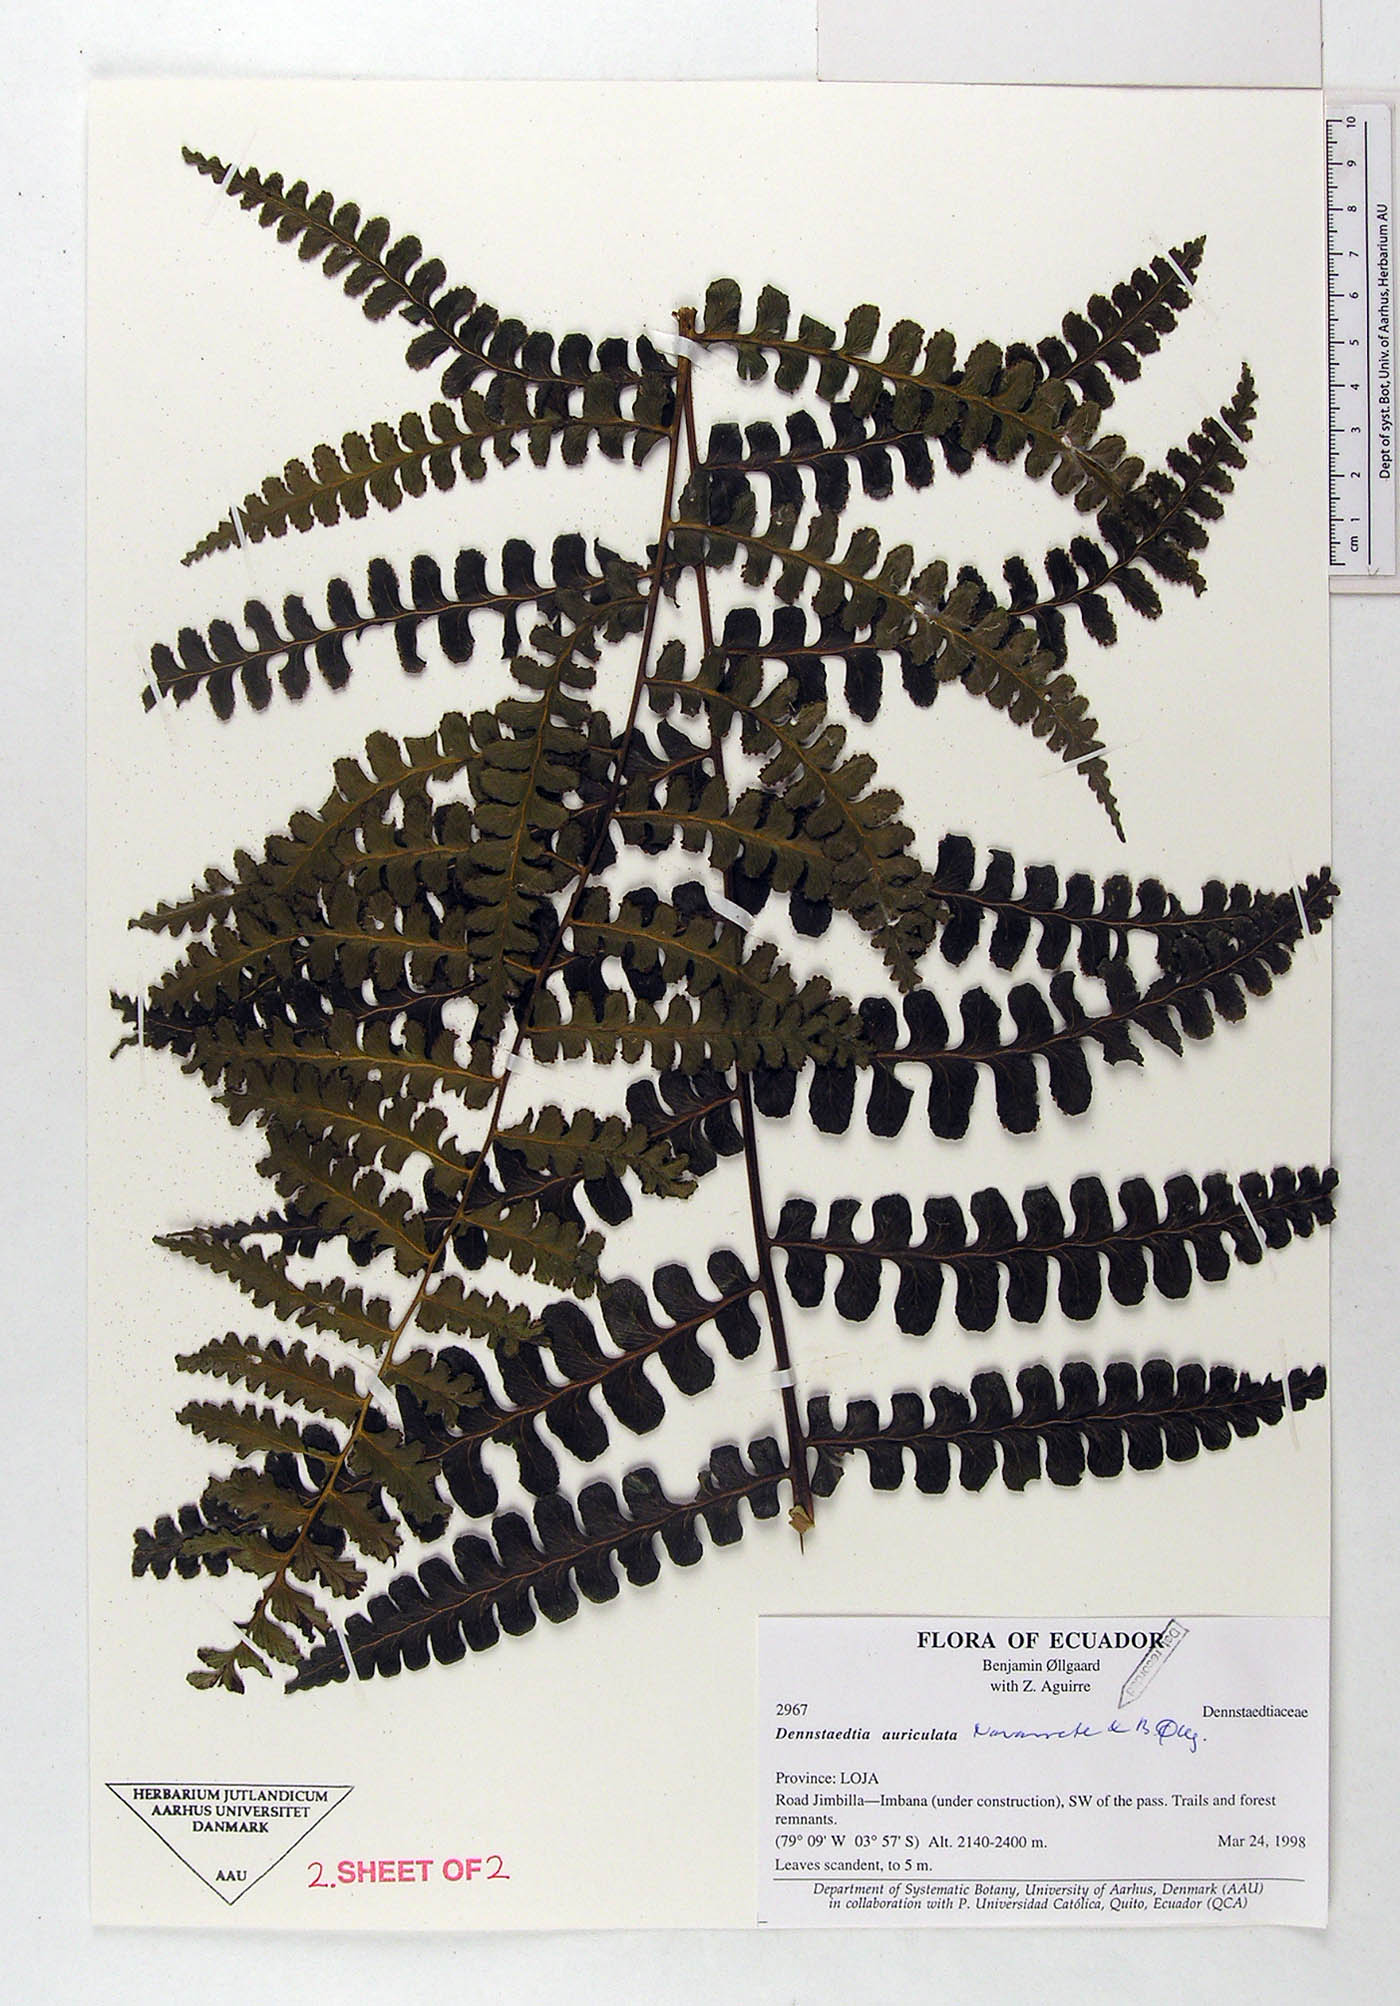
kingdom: Plantae
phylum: Tracheophyta
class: Polypodiopsida
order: Polypodiales
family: Dennstaedtiaceae
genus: Dennstaedtia
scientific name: Dennstaedtia auriculata
